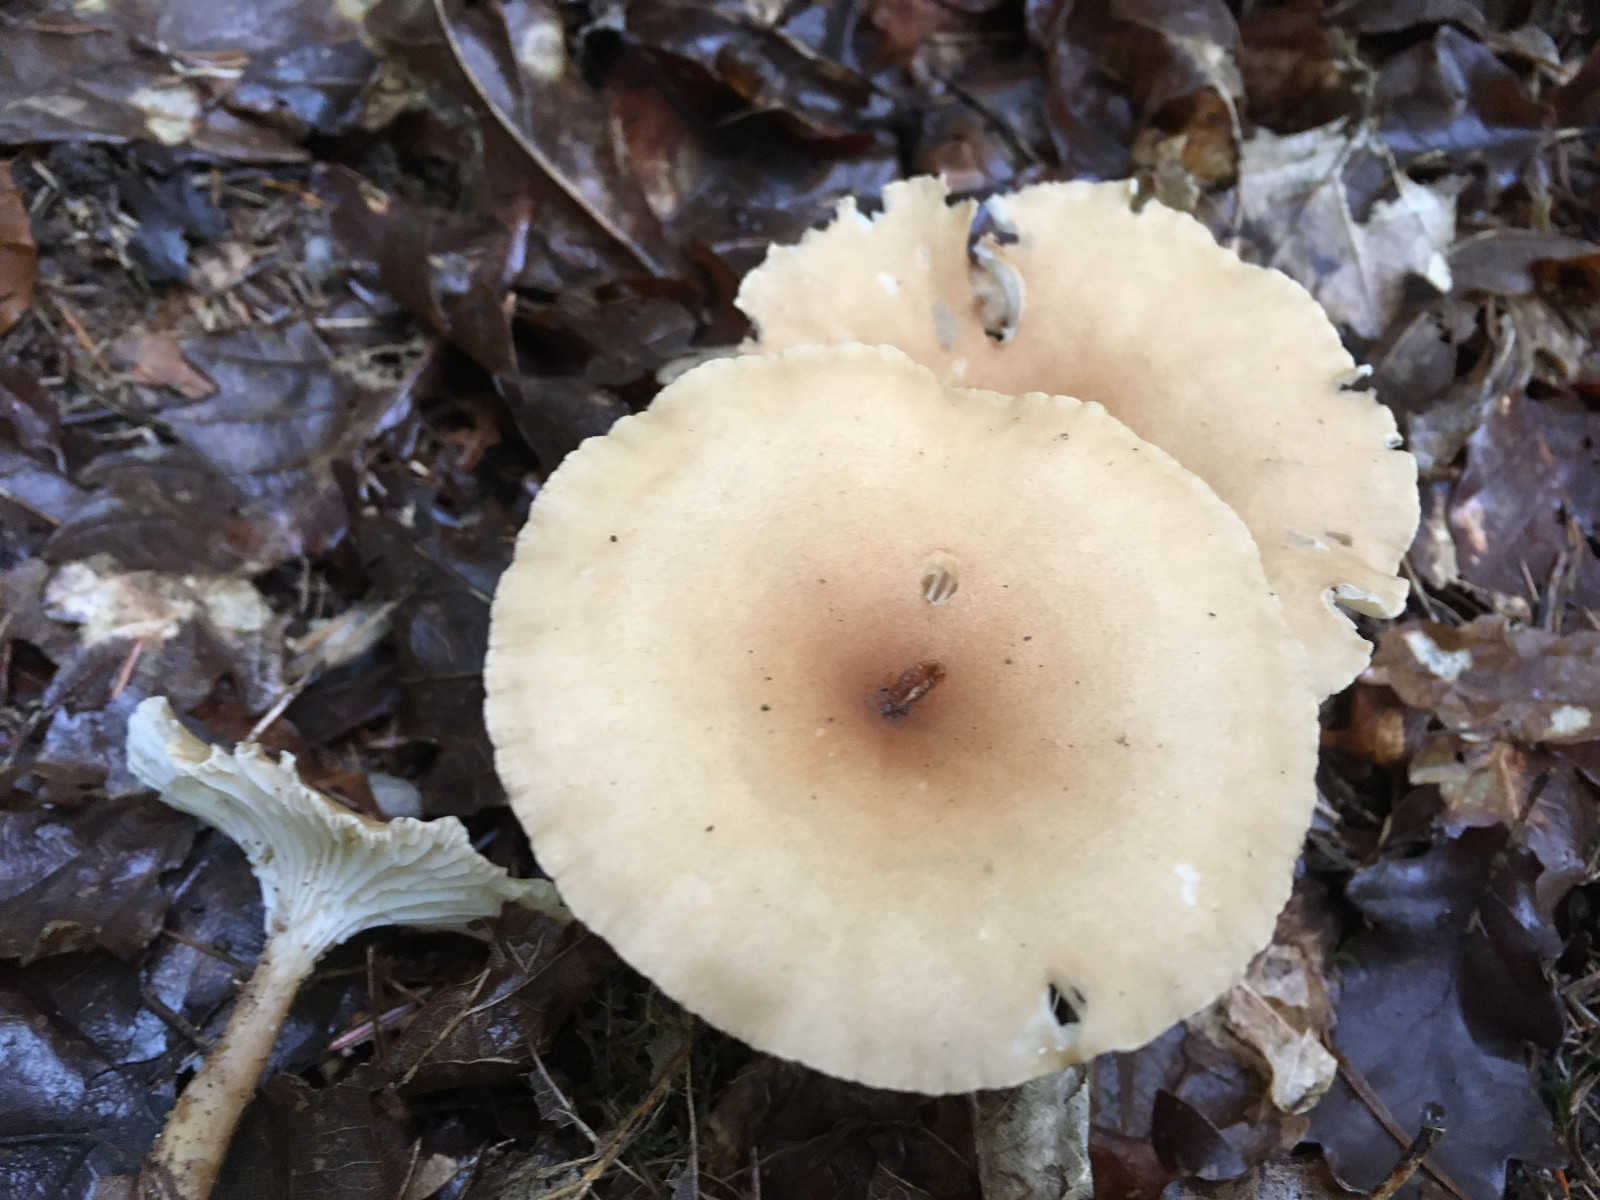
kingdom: Fungi
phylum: Basidiomycota
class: Agaricomycetes
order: Agaricales
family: Tricholomataceae
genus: Infundibulicybe
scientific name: Infundibulicybe gibba
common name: almindelig tragthat
